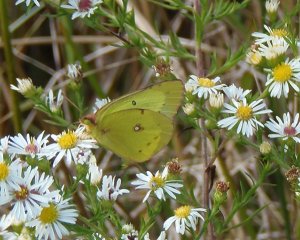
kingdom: Animalia
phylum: Arthropoda
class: Insecta
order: Lepidoptera
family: Pieridae
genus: Colias
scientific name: Colias philodice
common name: Clouded Sulphur
